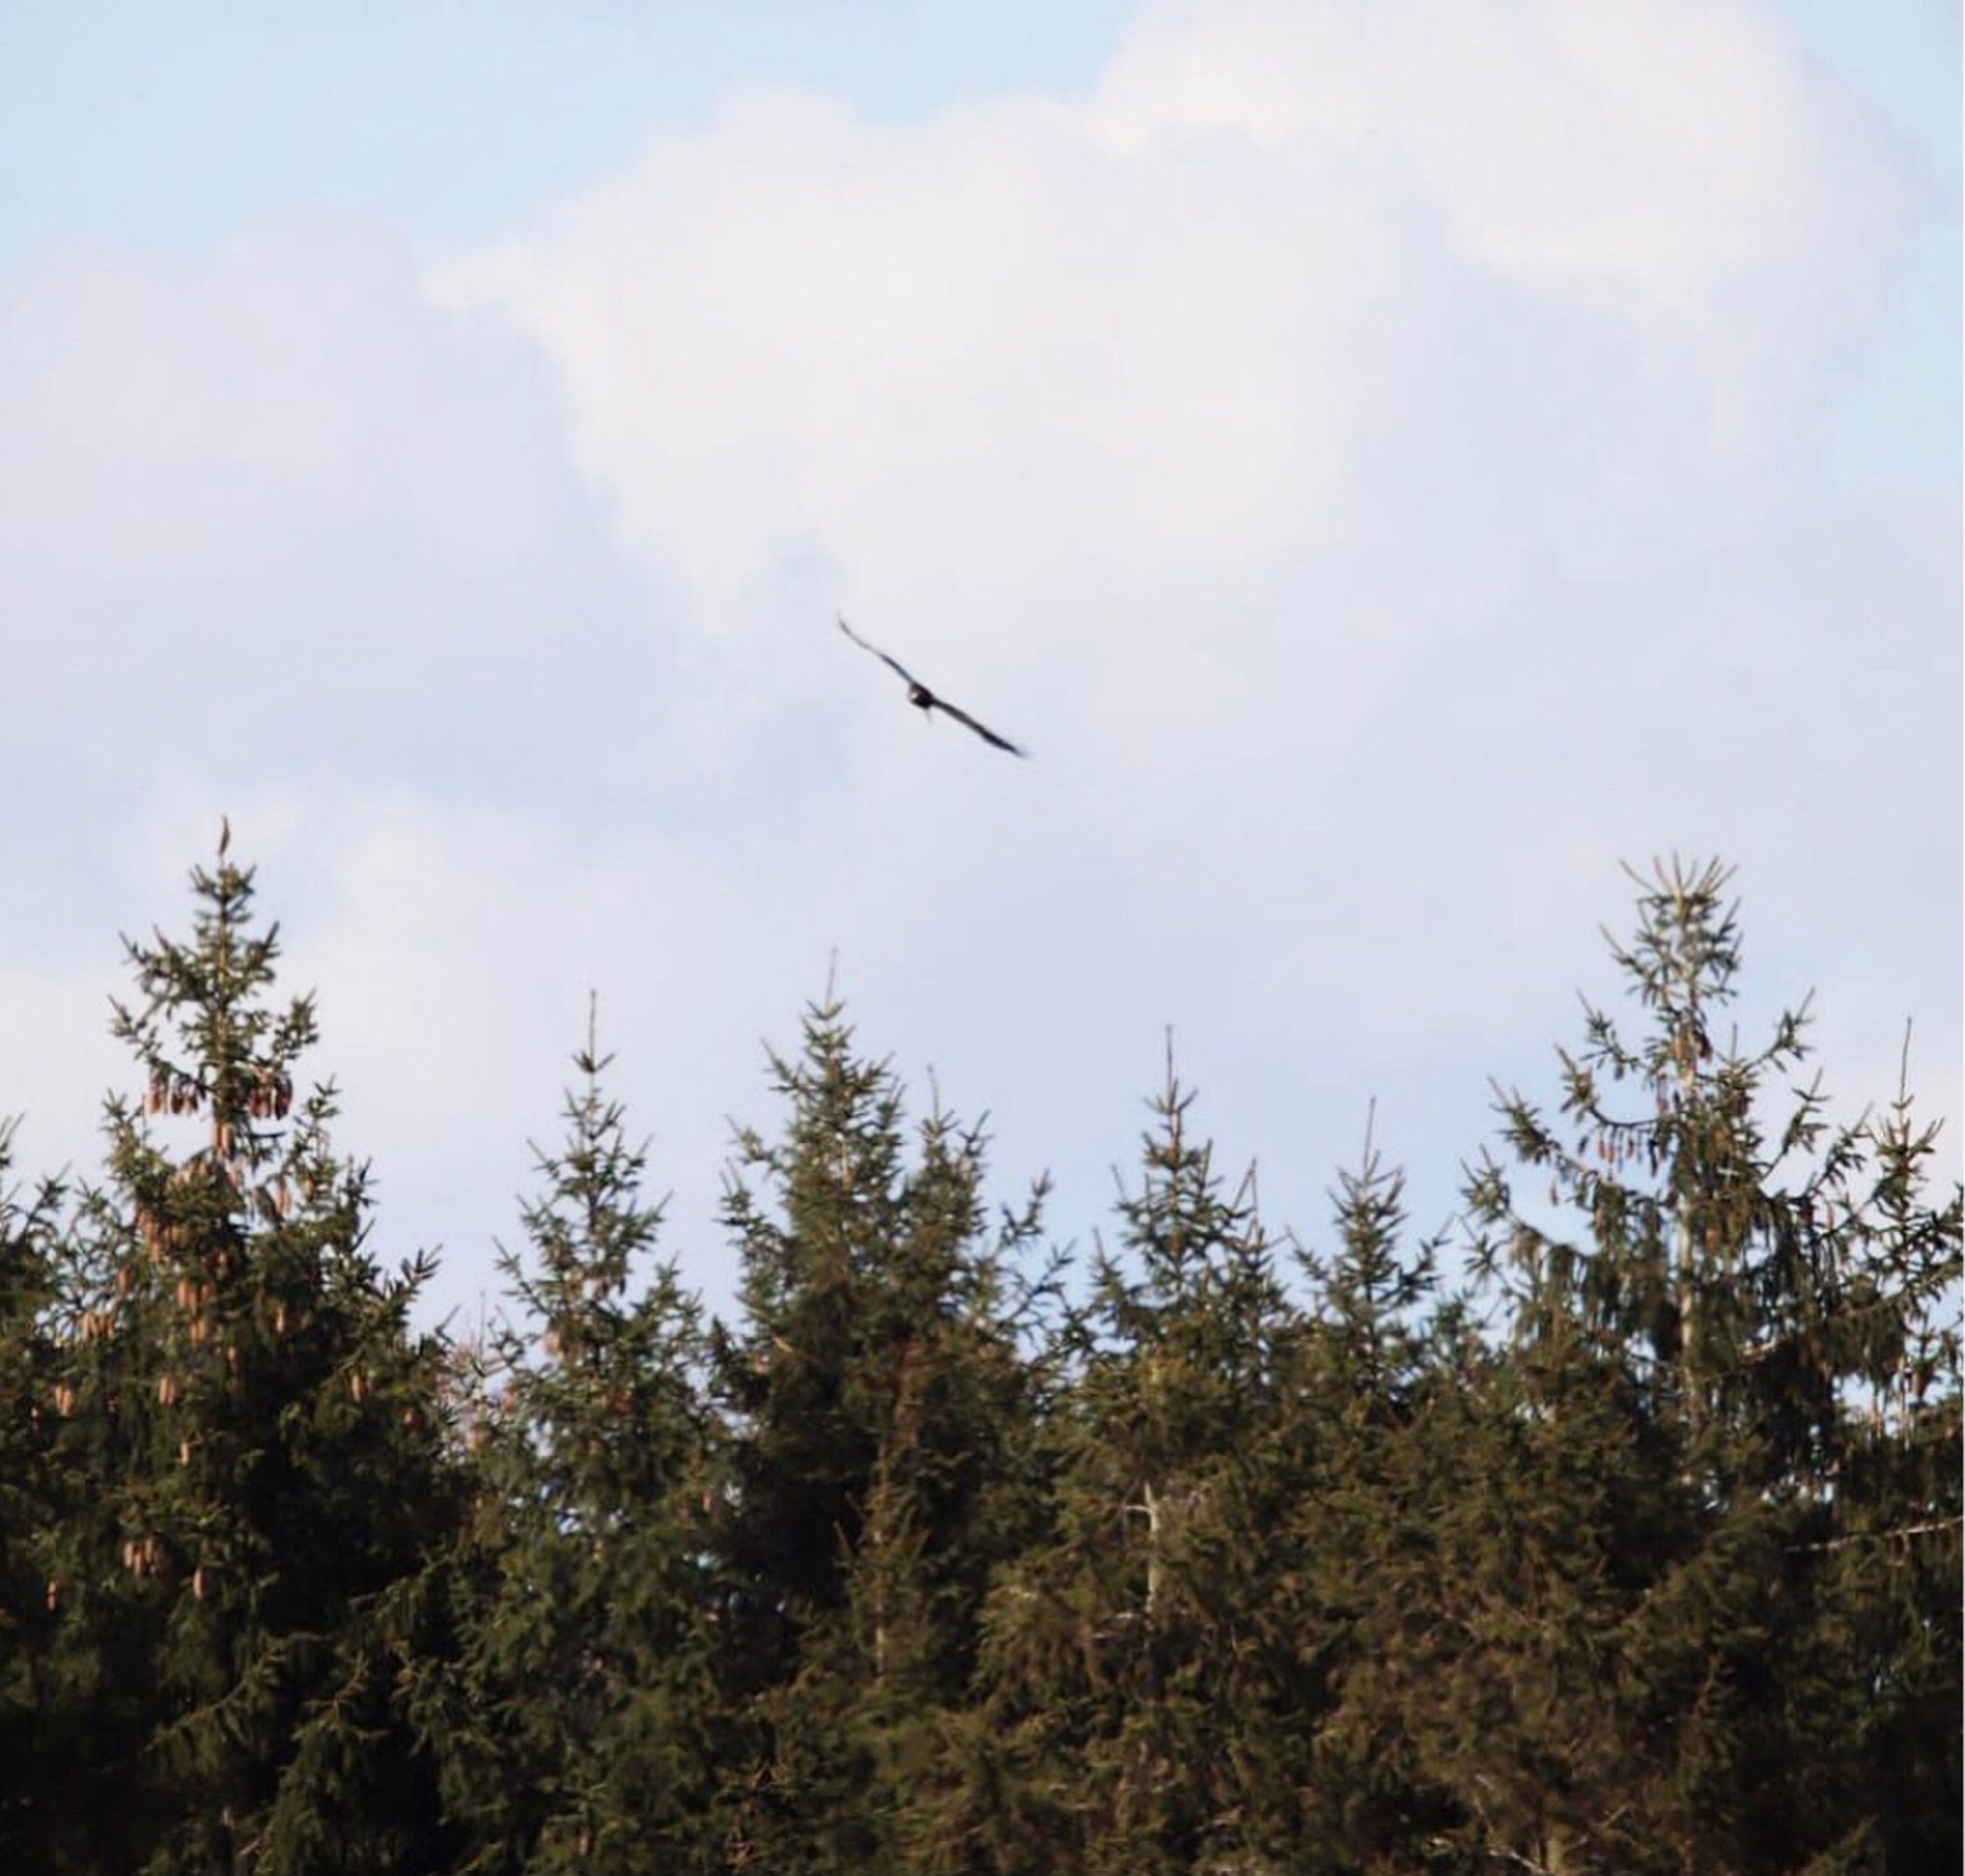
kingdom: Animalia
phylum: Chordata
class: Aves
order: Accipitriformes
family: Accipitridae
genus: Haliaeetus
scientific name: Haliaeetus albicilla
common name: Havørn
